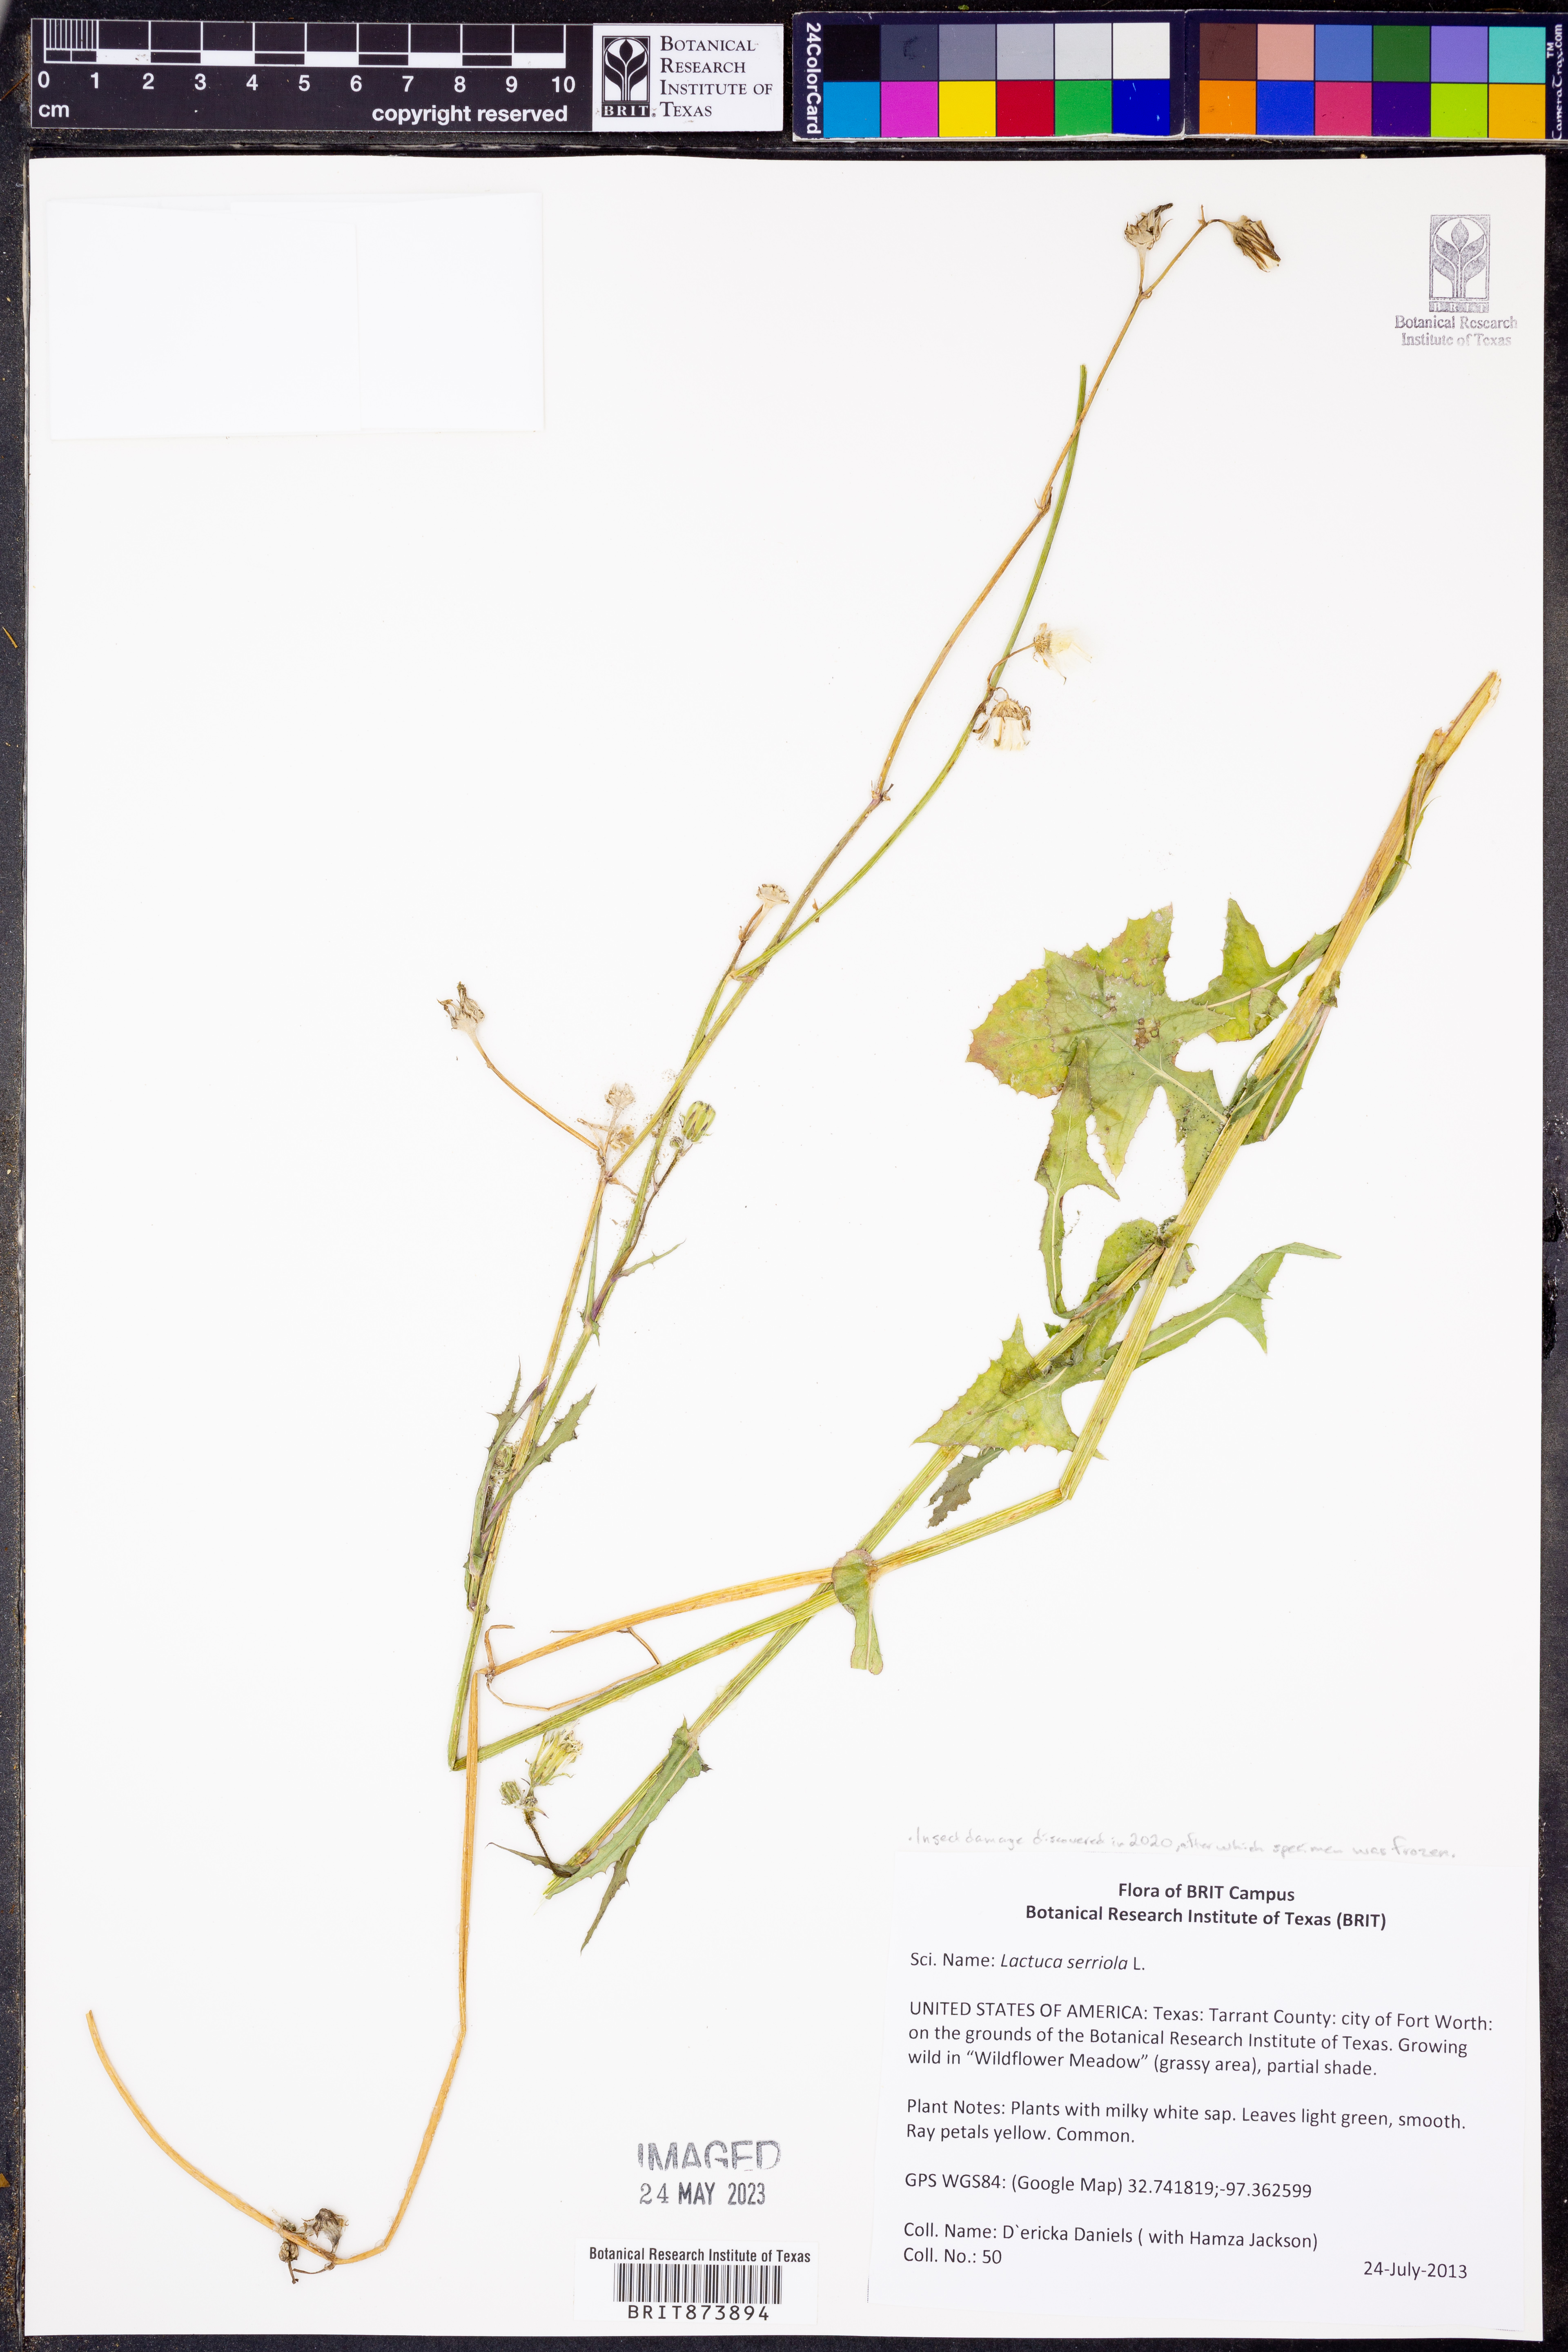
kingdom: Plantae
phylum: Tracheophyta
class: Magnoliopsida
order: Asterales
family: Asteraceae
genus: Lactuca
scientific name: Lactuca serriola
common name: Prickly lettuce
